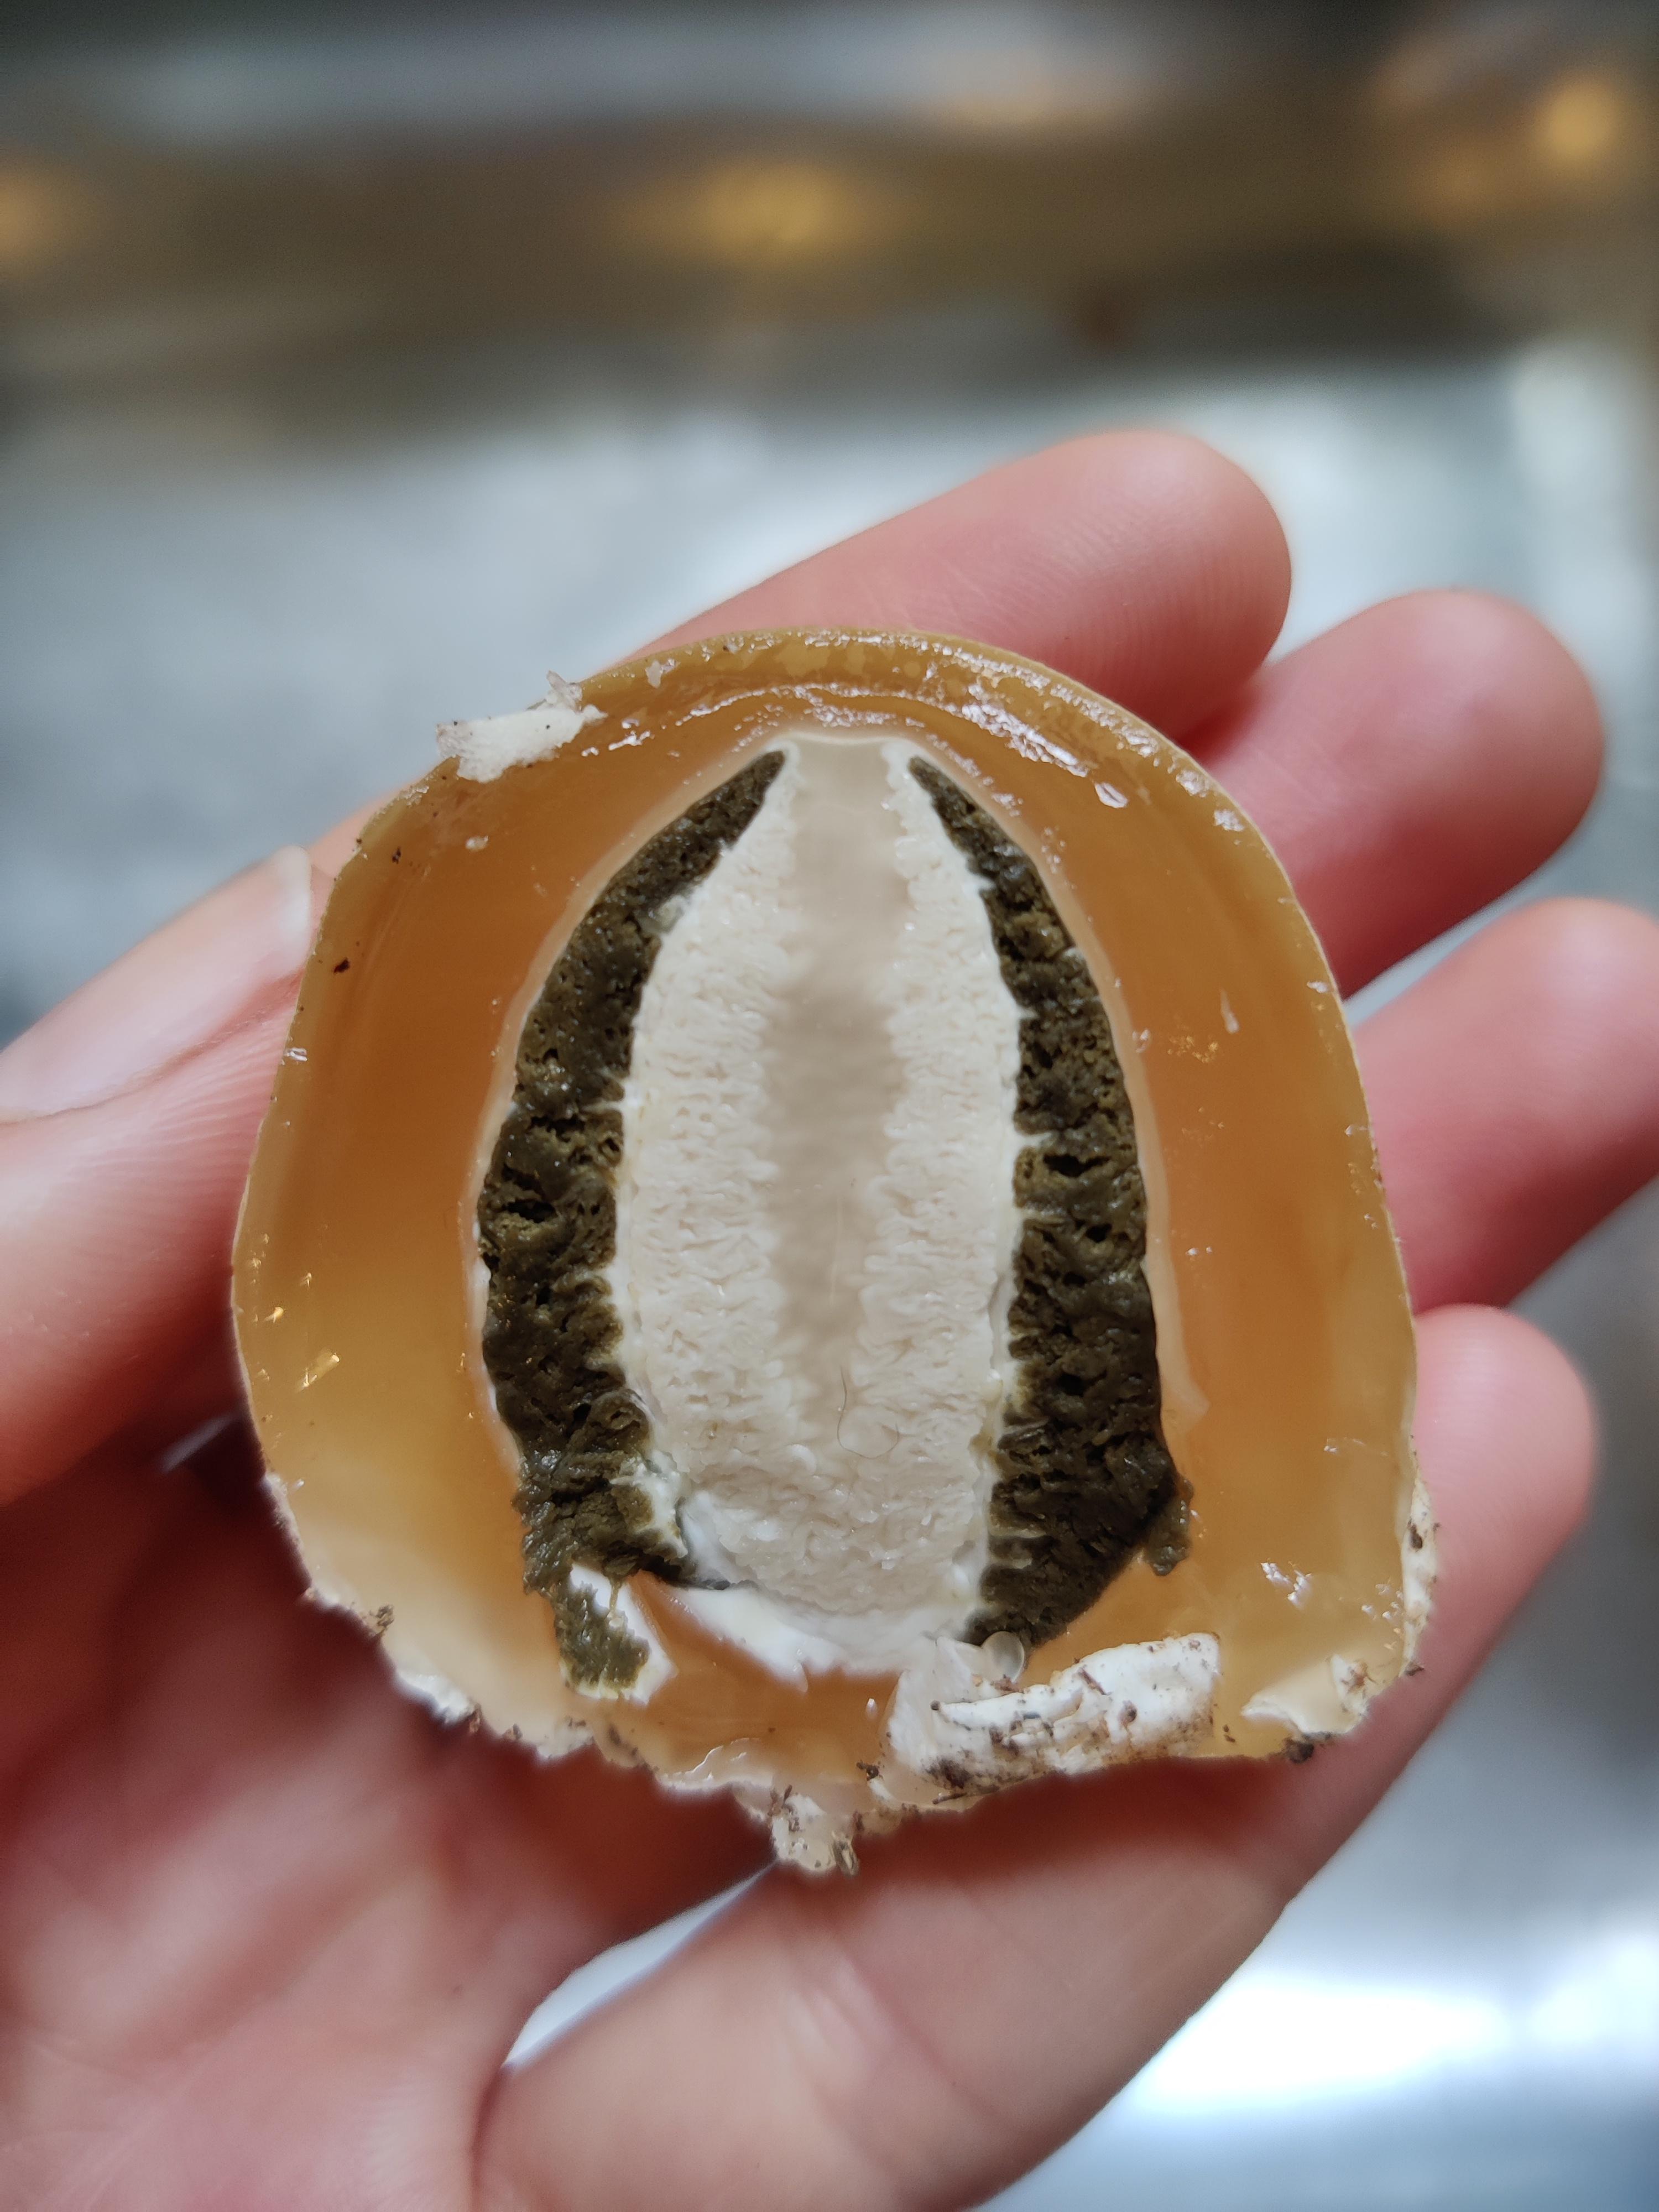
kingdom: Fungi
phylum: Basidiomycota
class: Agaricomycetes
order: Phallales
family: Phallaceae
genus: Phallus
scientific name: Phallus impudicus
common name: almindelig stinksvamp
